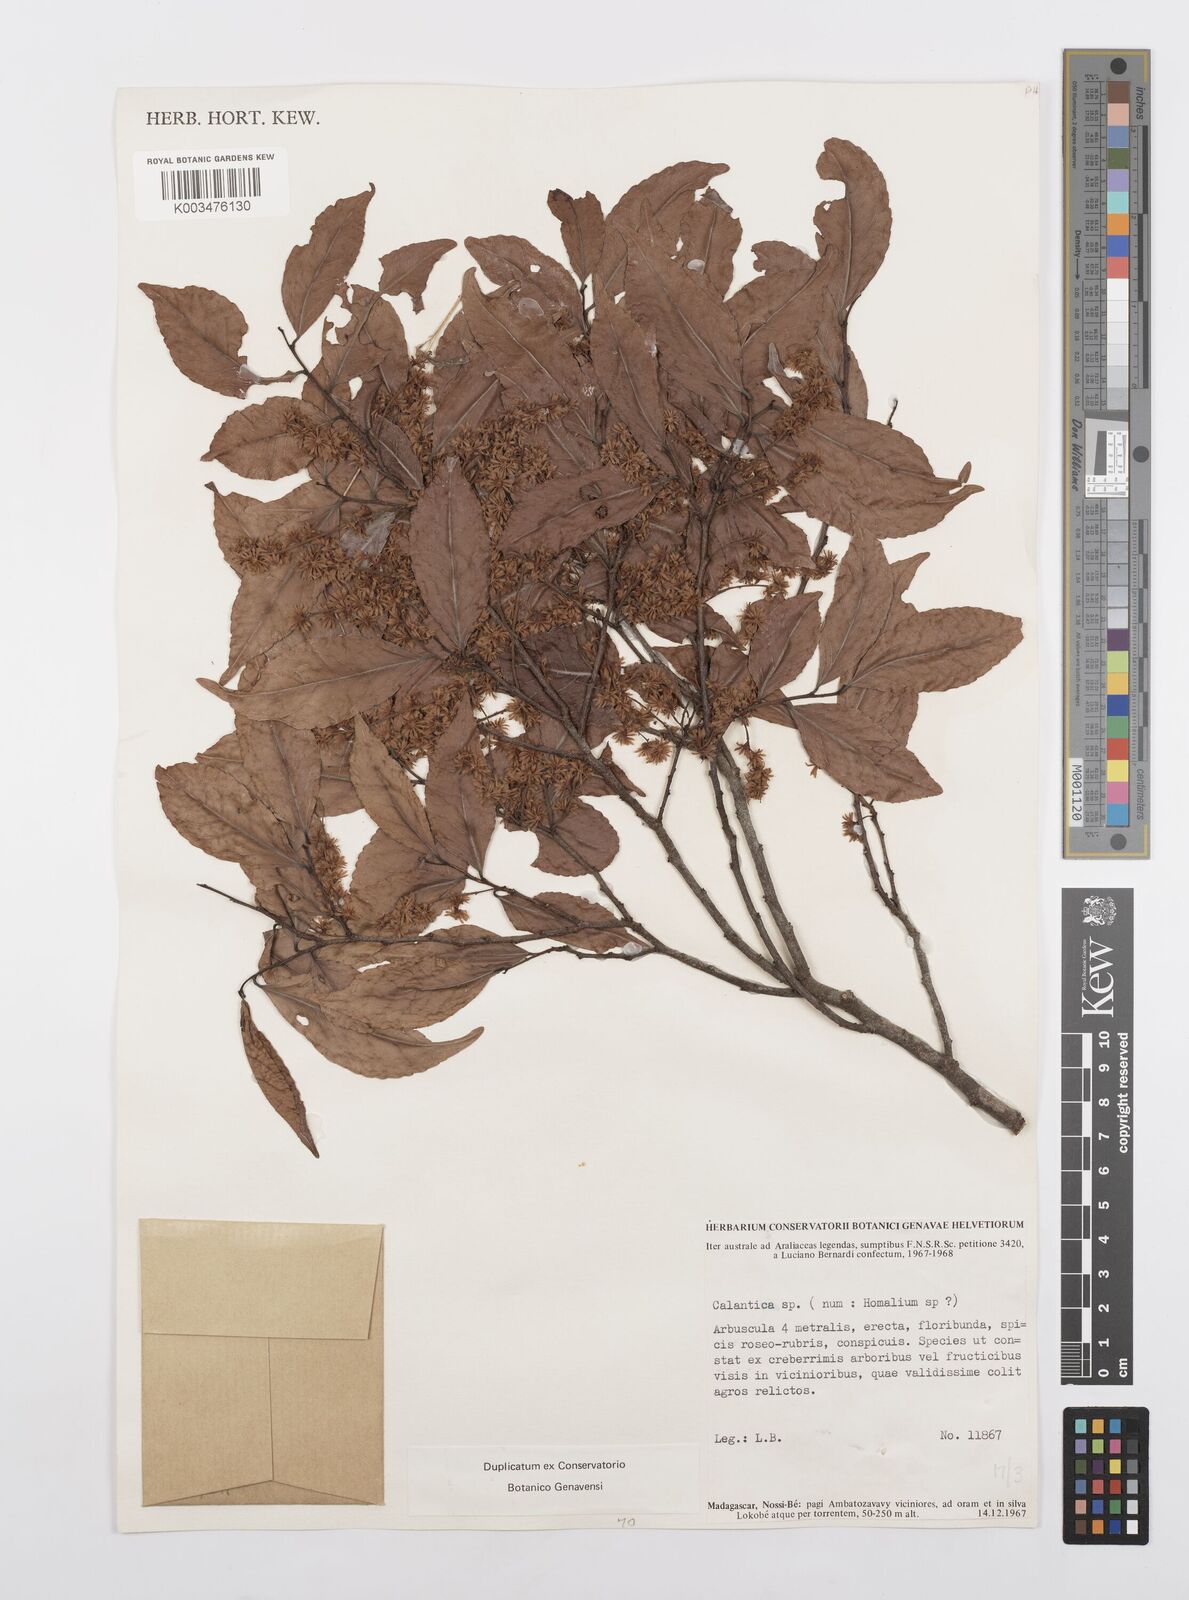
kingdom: Plantae
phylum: Tracheophyta
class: Magnoliopsida
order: Malpighiales
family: Salicaceae
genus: Homalium
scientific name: Homalium
